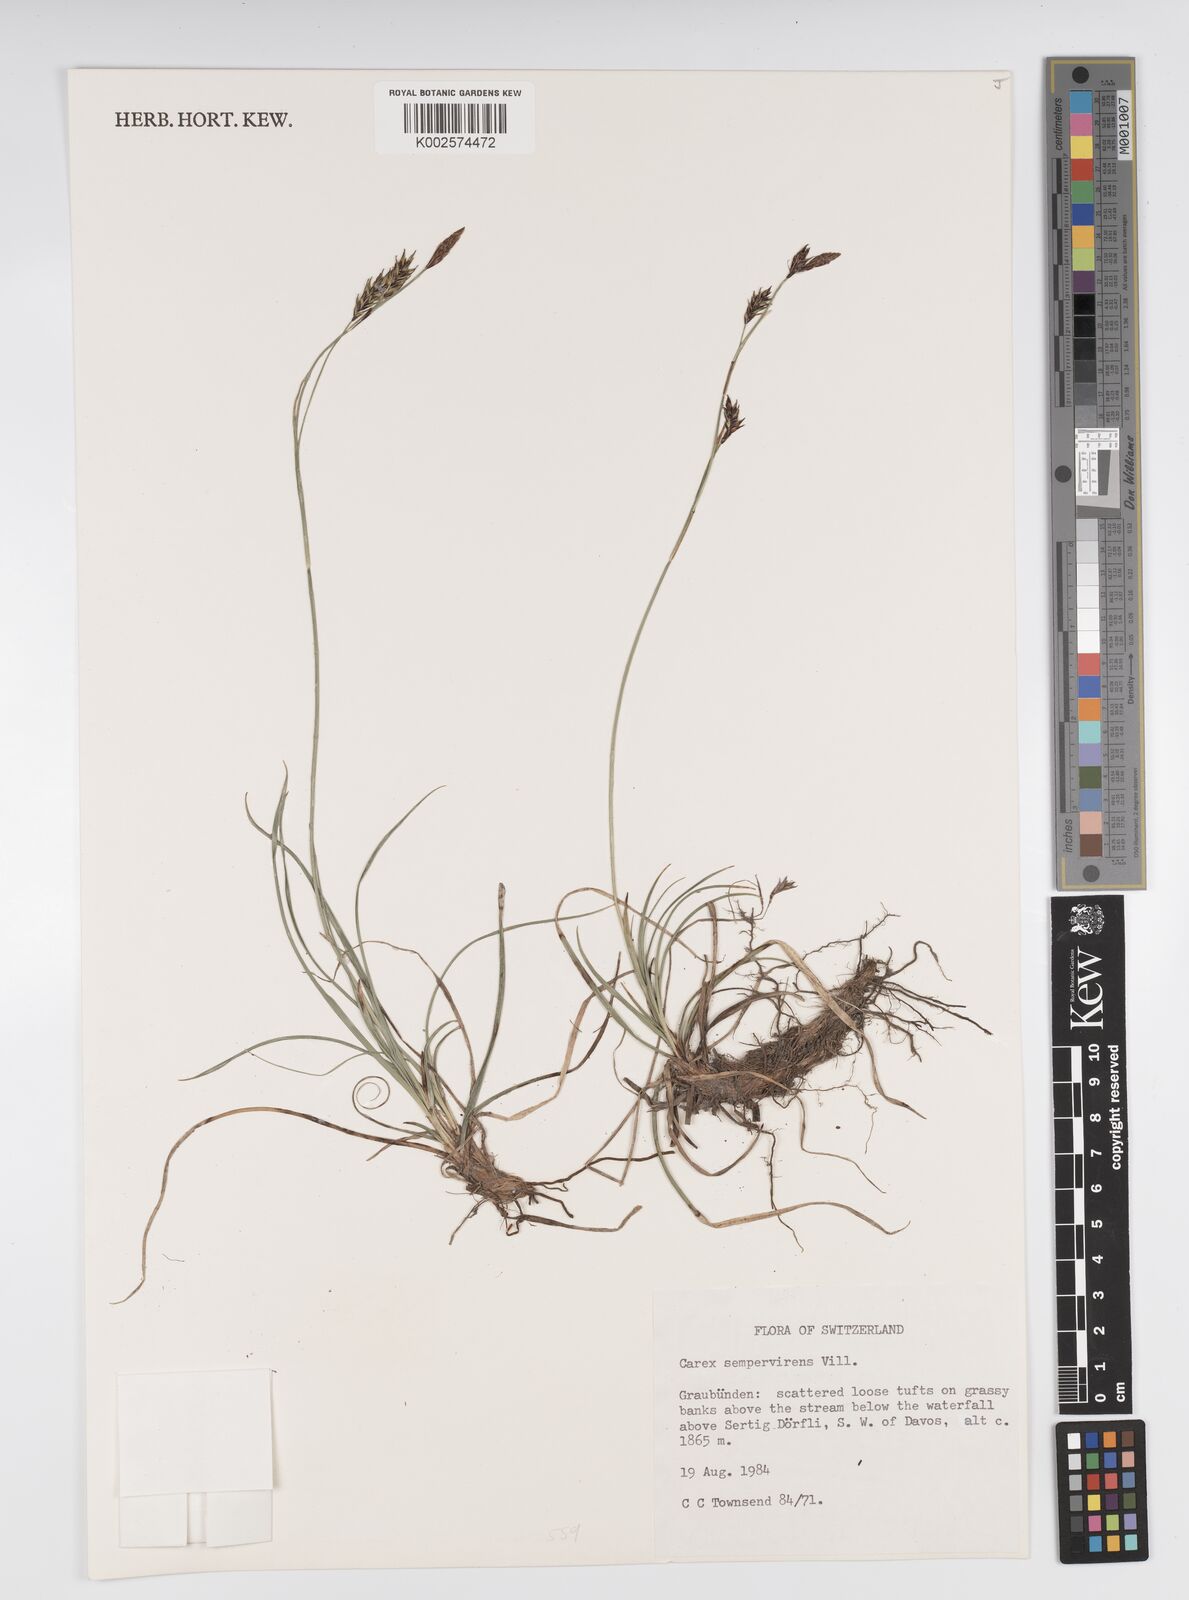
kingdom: Plantae
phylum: Tracheophyta
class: Liliopsida
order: Poales
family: Cyperaceae
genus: Carex
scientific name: Carex sempervirens
